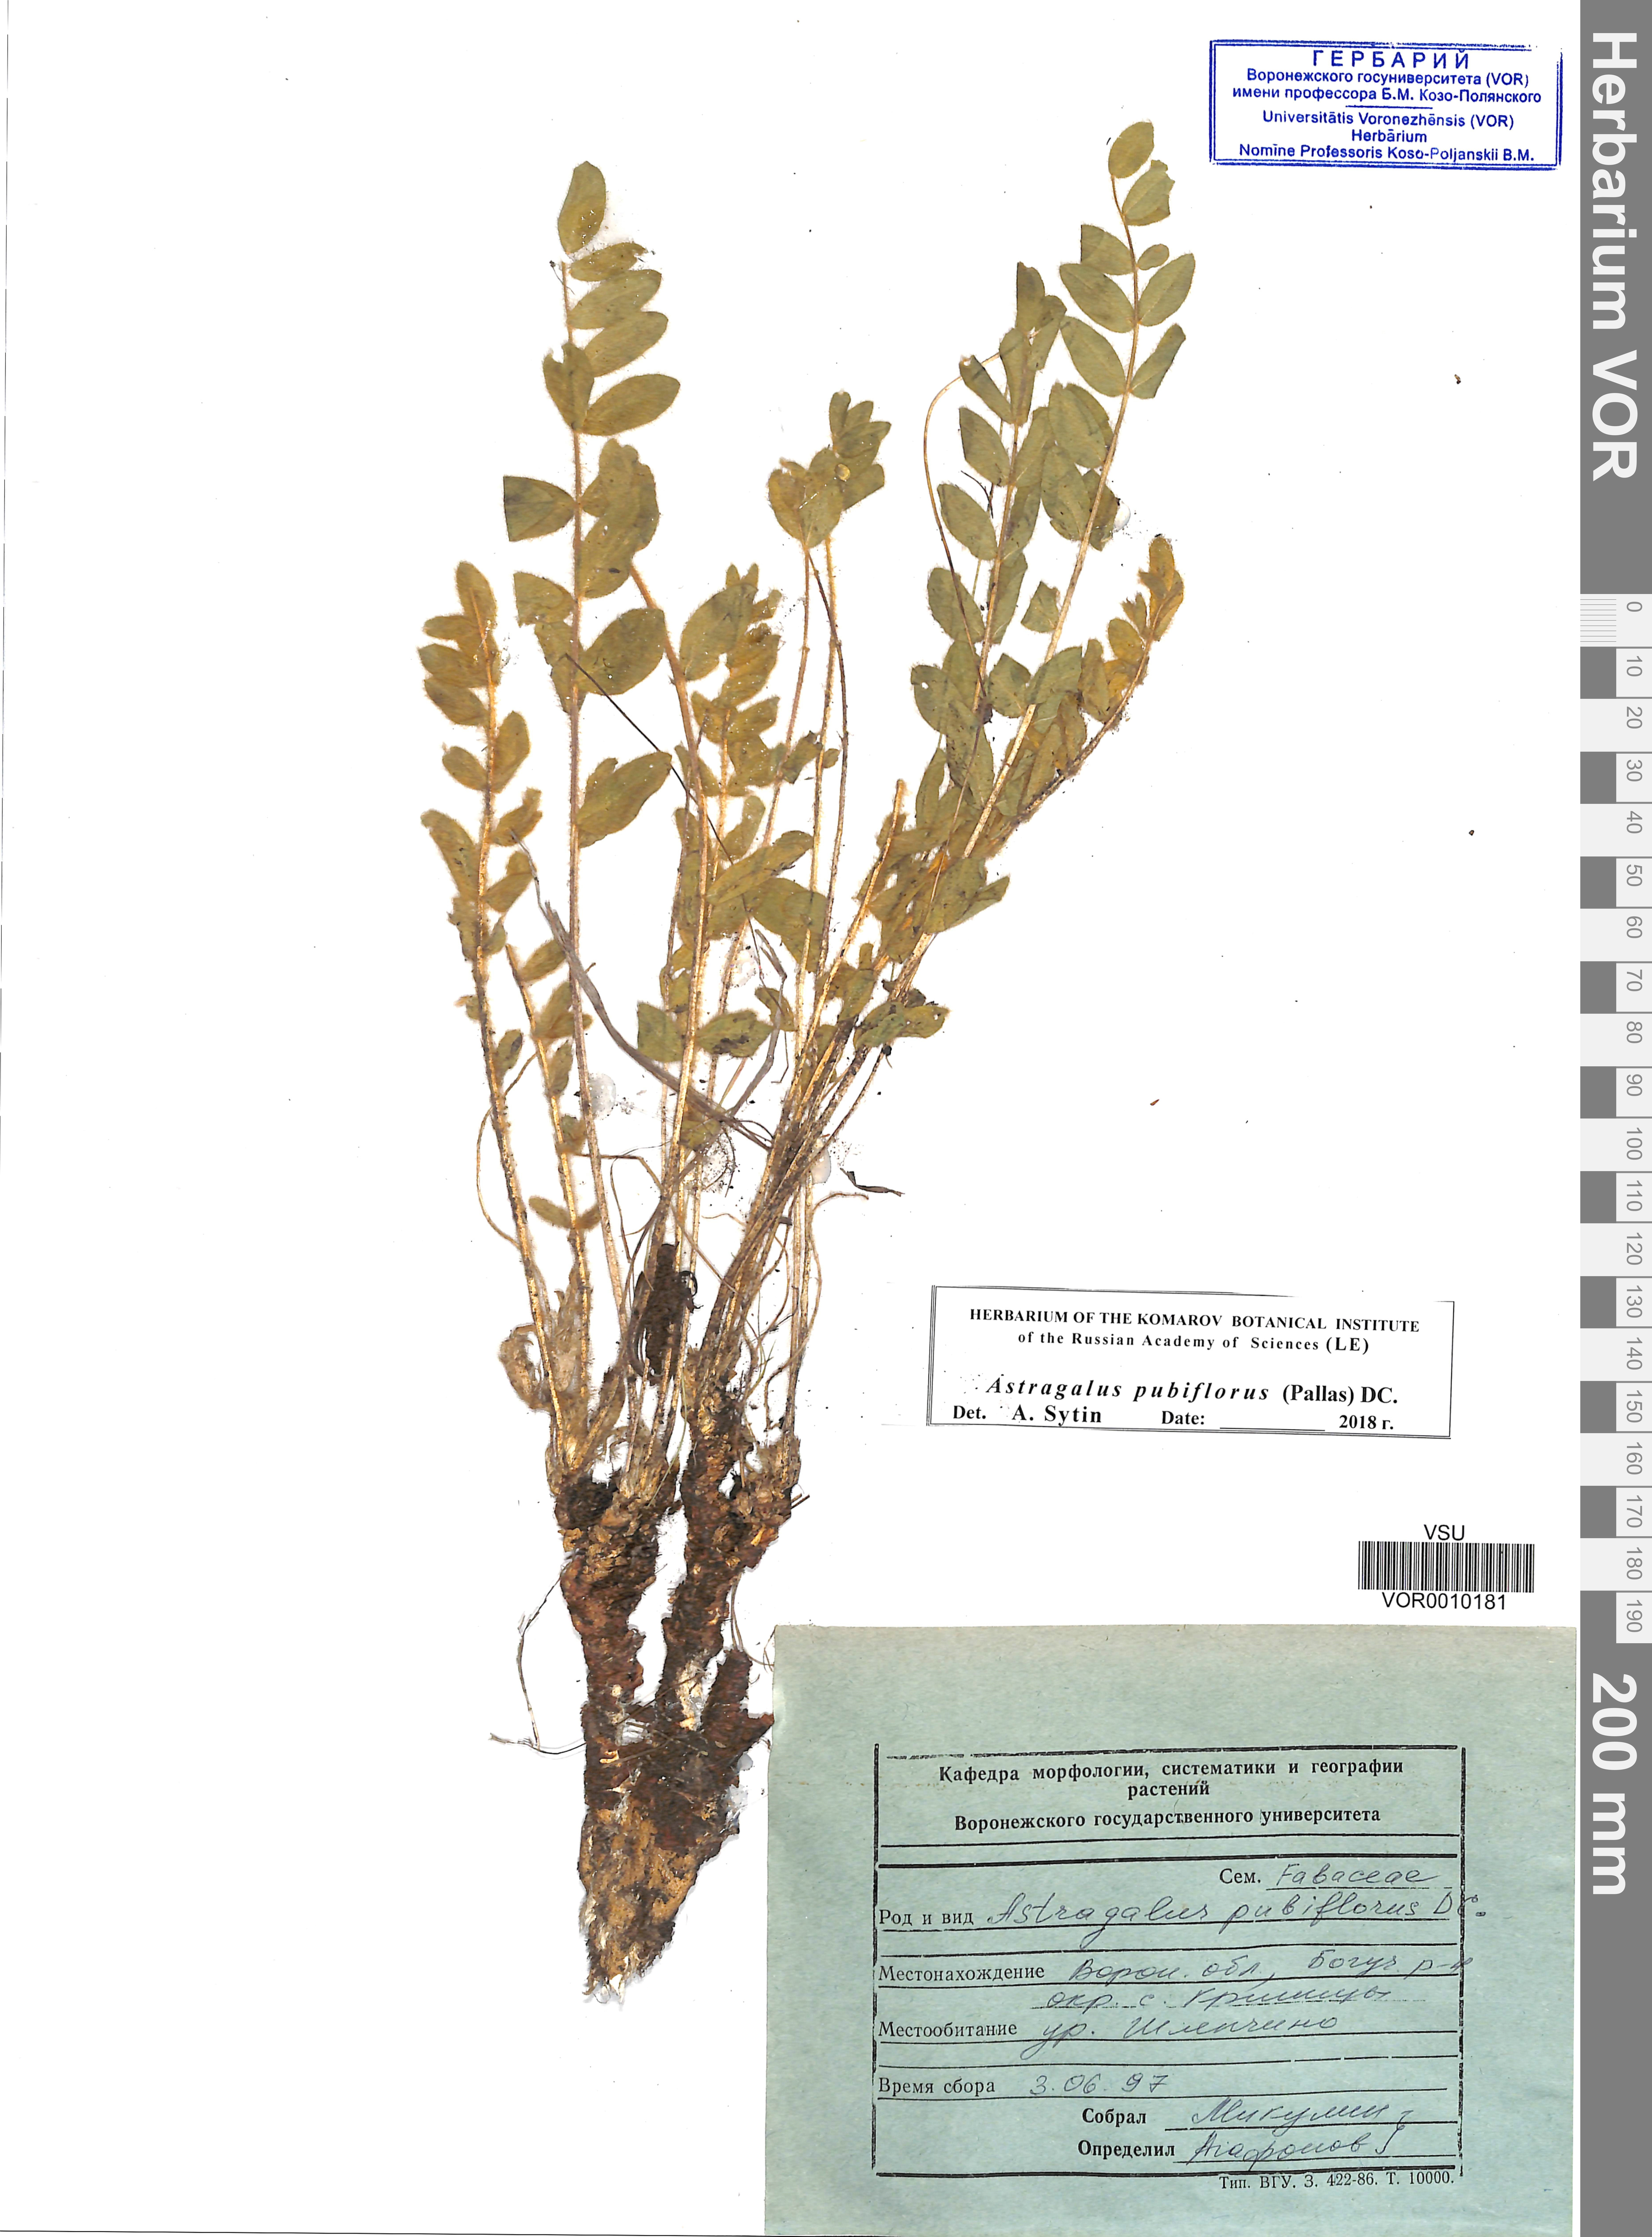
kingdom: Plantae
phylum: Tracheophyta
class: Magnoliopsida
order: Fabales
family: Fabaceae
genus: Astragalus
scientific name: Astragalus exscapus
